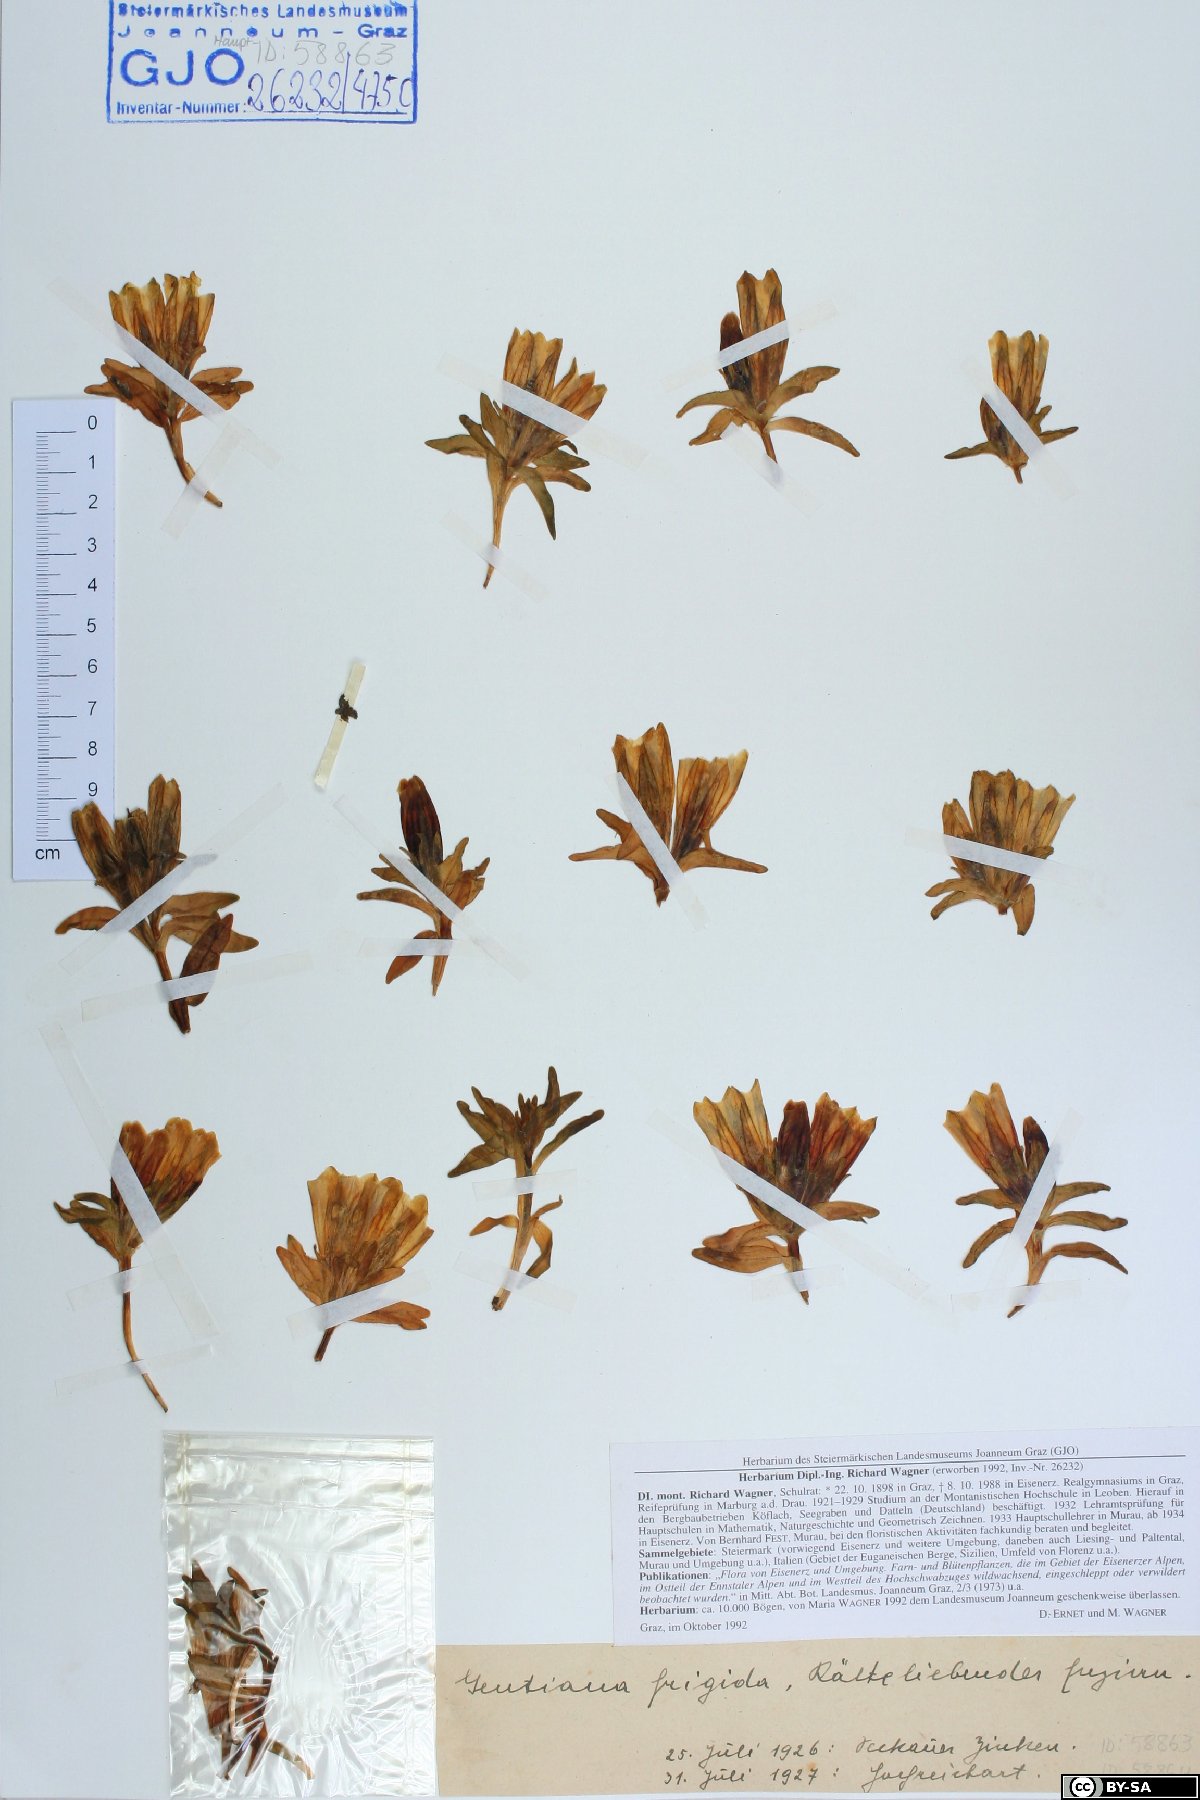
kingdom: Plantae
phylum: Tracheophyta
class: Magnoliopsida
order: Gentianales
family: Gentianaceae
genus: Gentiana
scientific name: Gentiana frigida
